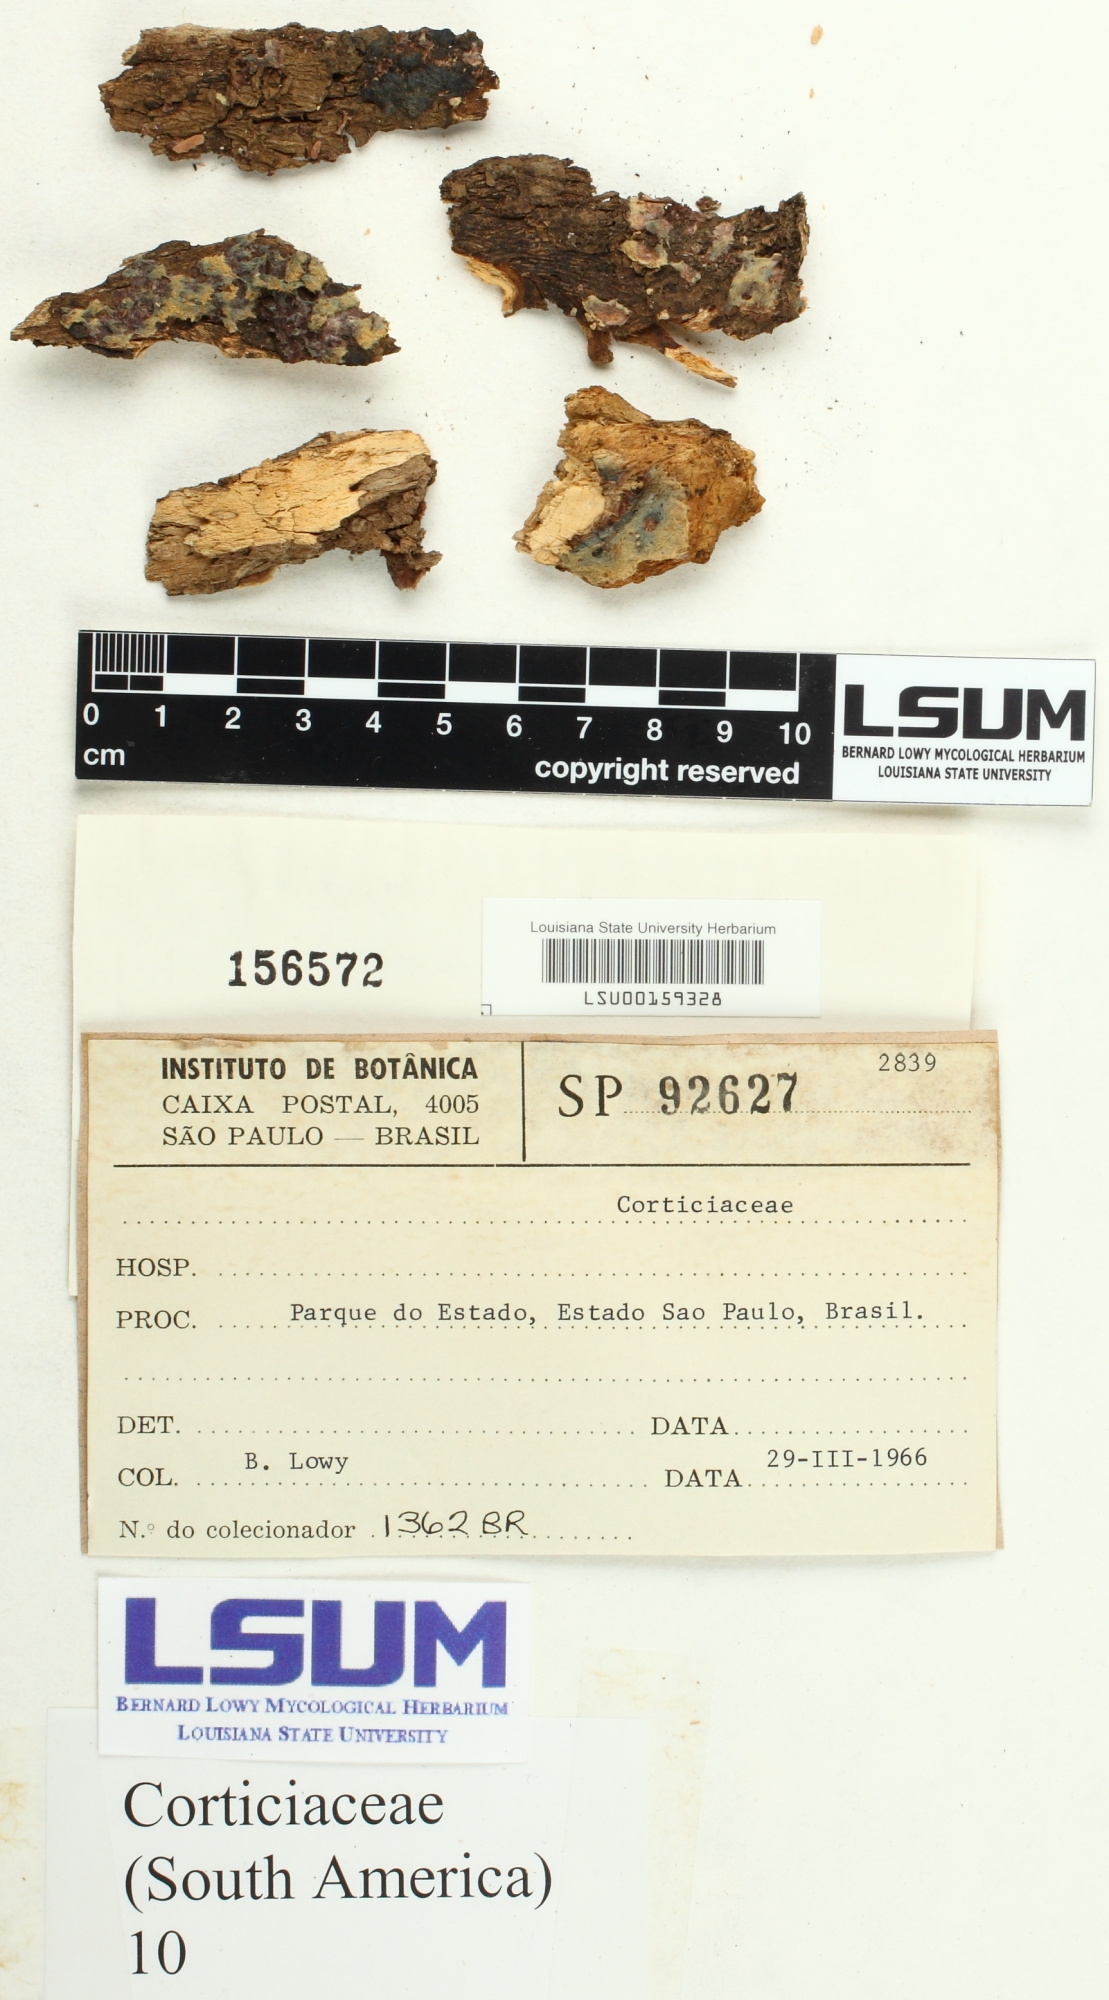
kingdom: Fungi
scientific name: Fungi
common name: Fungi
